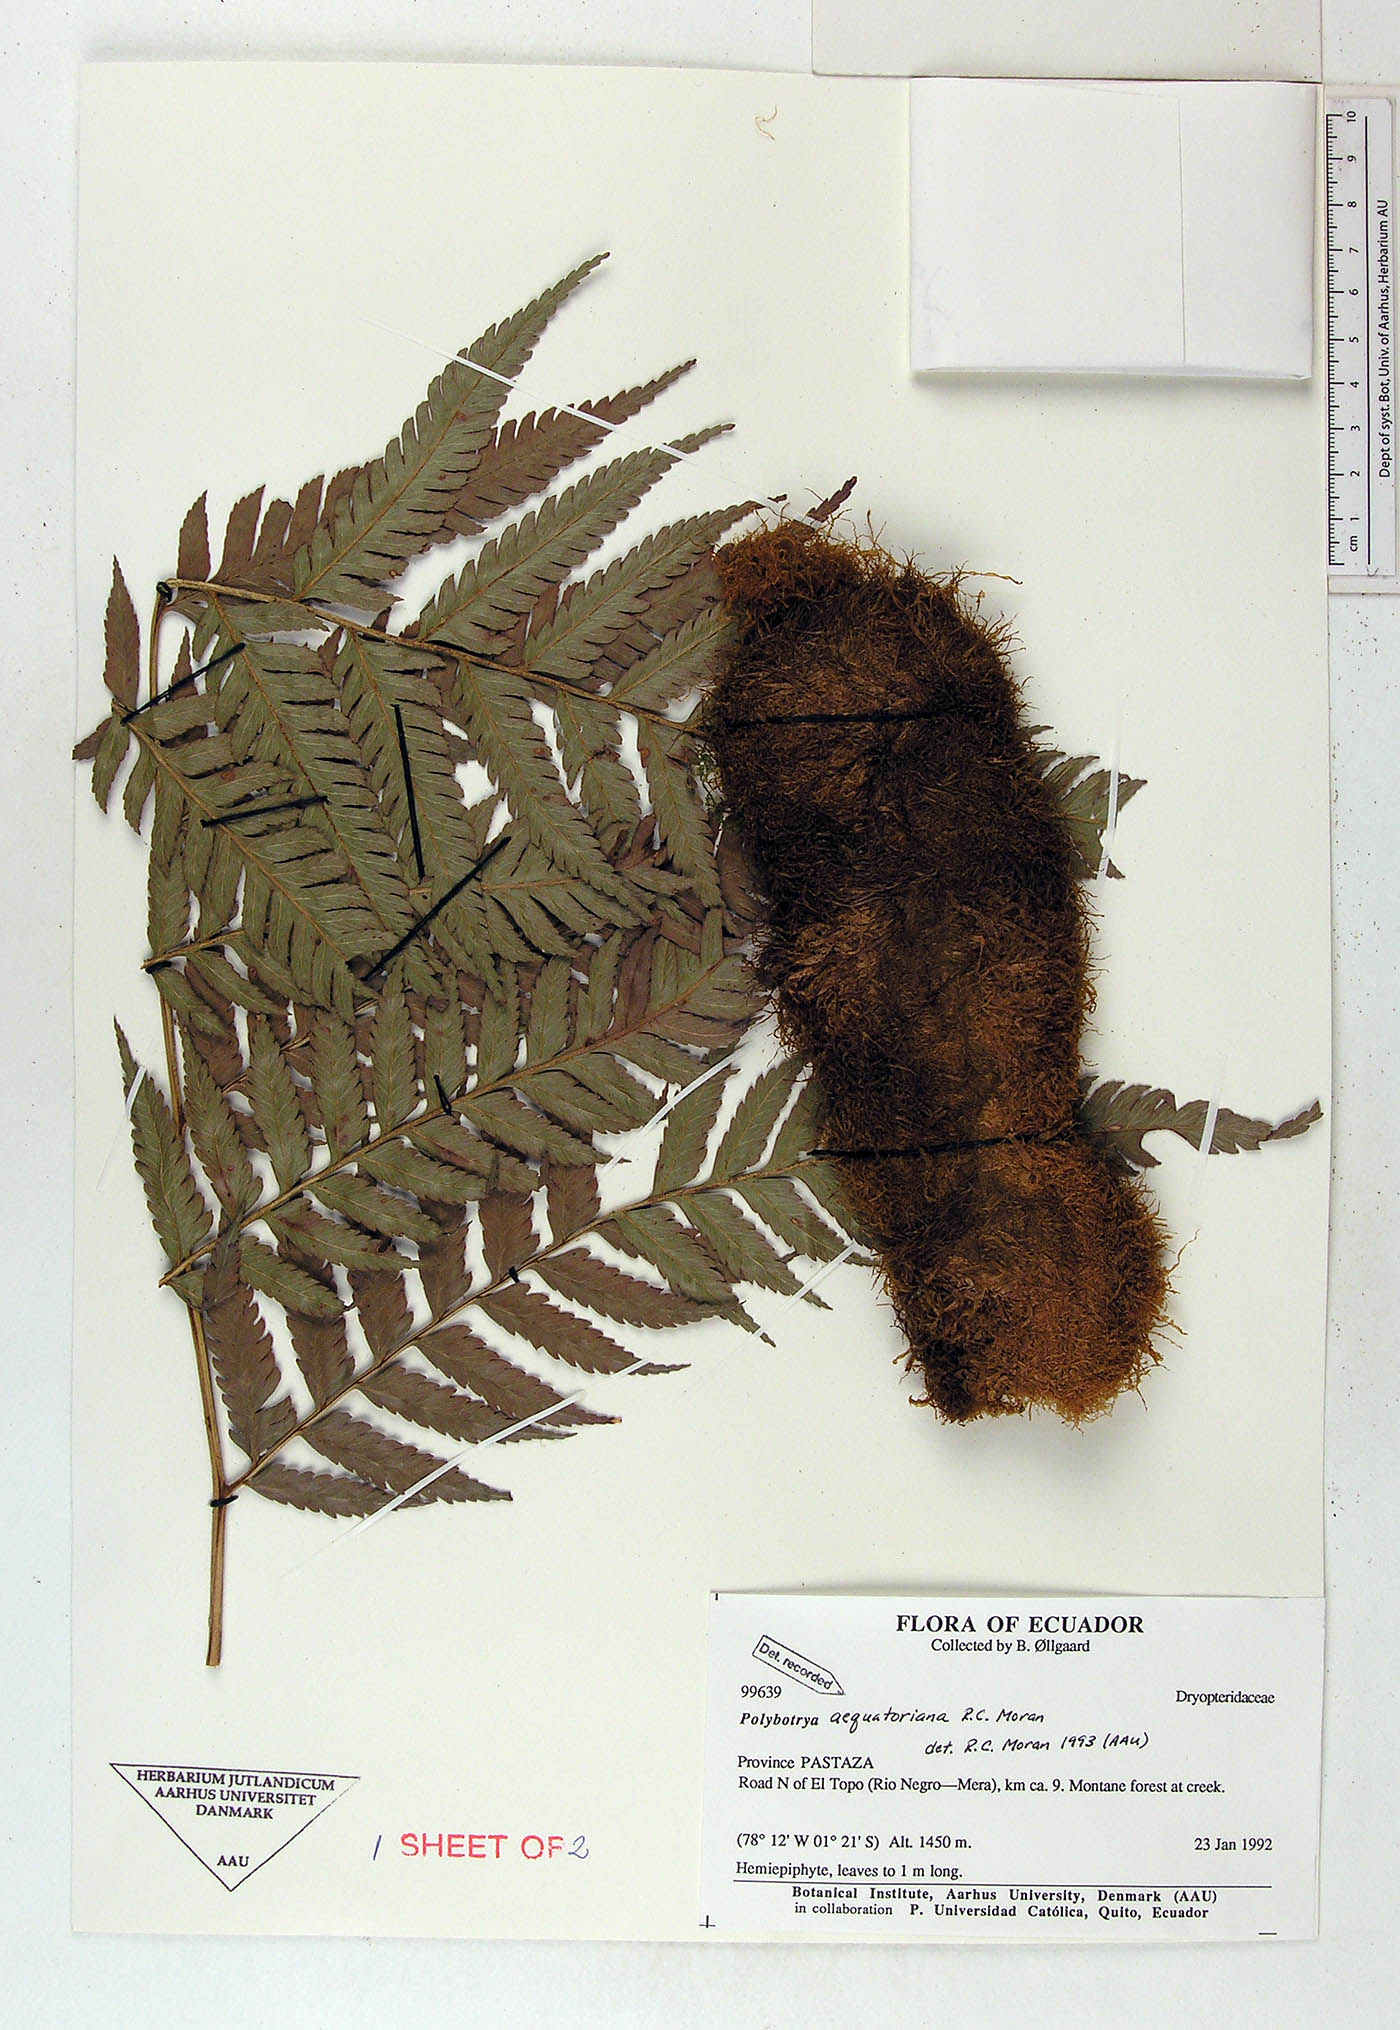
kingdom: Plantae
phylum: Tracheophyta
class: Polypodiopsida
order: Polypodiales
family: Dryopteridaceae
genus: Polybotrya
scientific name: Polybotrya aequatoriana
